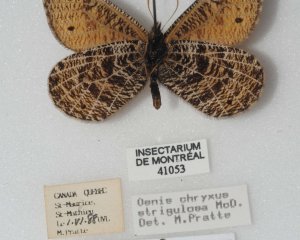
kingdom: Animalia
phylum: Arthropoda
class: Insecta
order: Lepidoptera
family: Nymphalidae
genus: Oeneis
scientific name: Oeneis chryxus
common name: Chryxus Arctic
